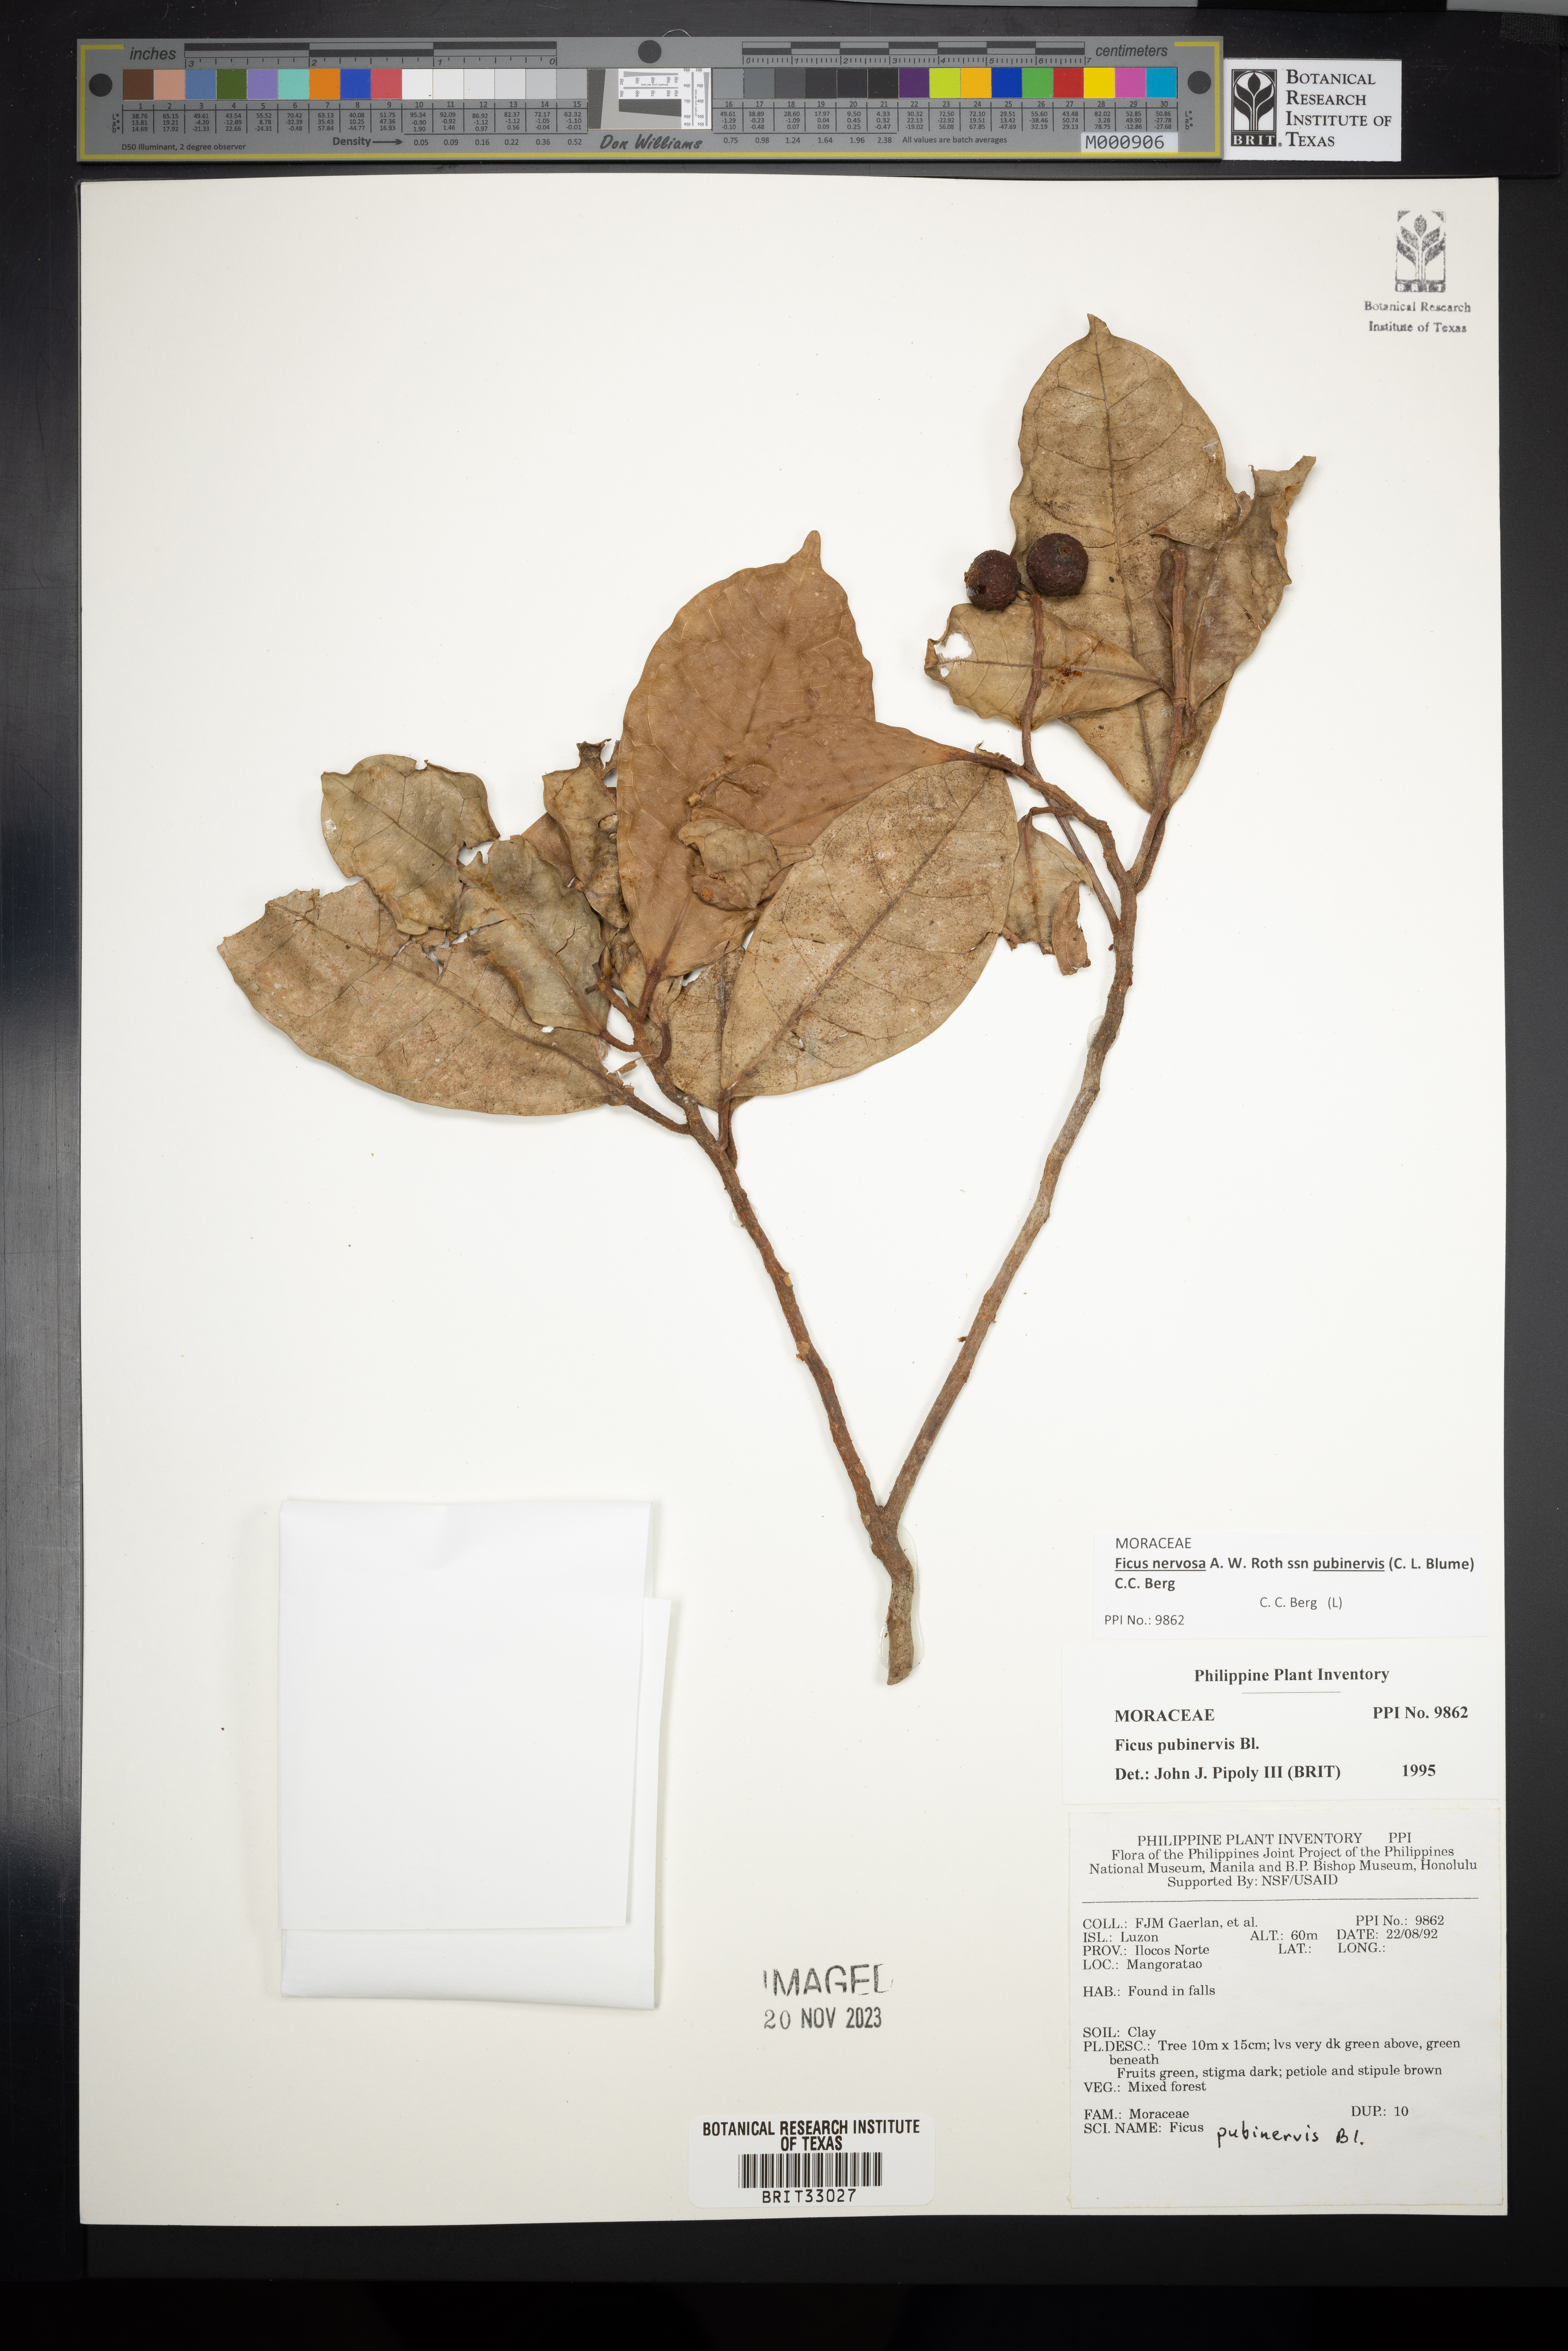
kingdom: Plantae
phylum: Tracheophyta
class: Magnoliopsida
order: Rosales
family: Moraceae
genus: Ficus
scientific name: Ficus nervosa
